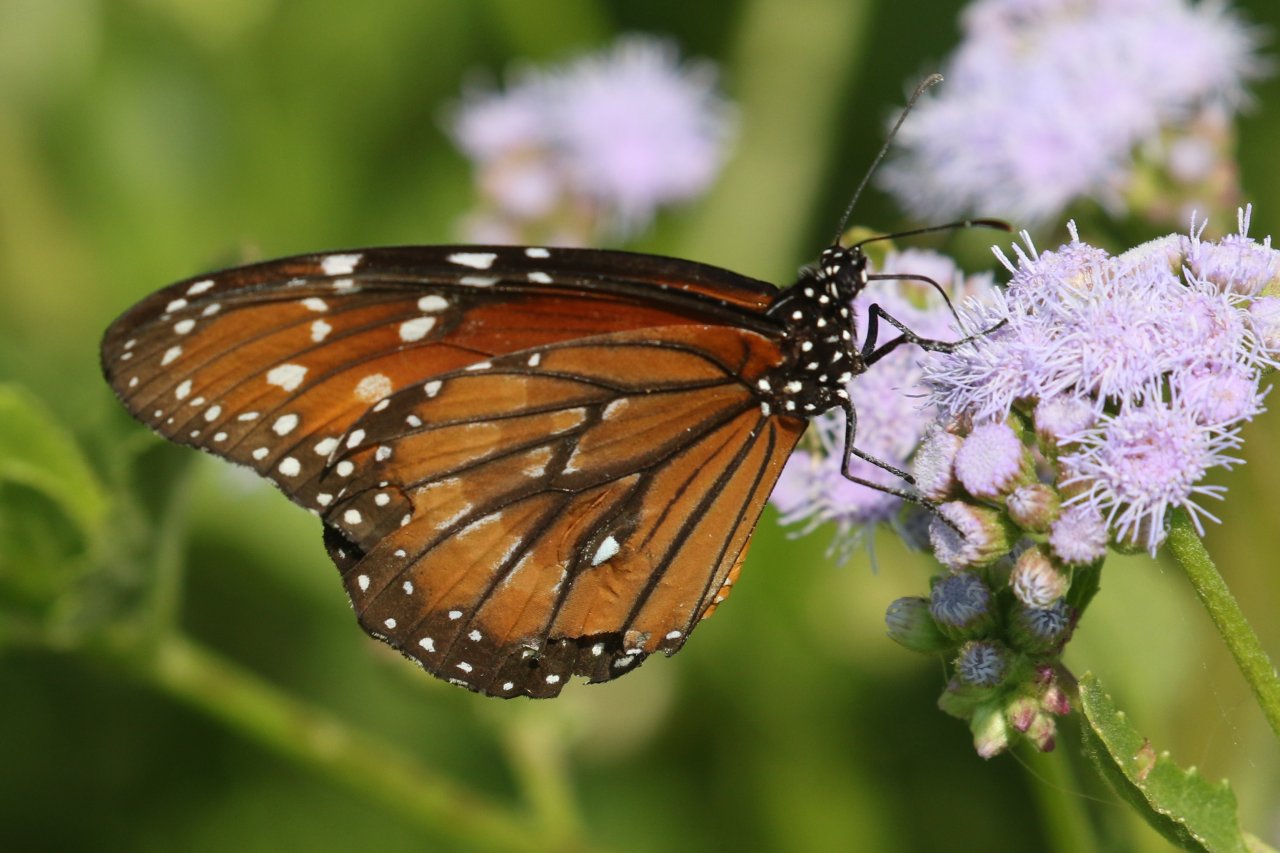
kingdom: Animalia
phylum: Arthropoda
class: Insecta
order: Lepidoptera
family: Nymphalidae
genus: Danaus
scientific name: Danaus eresimus
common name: Soldier
